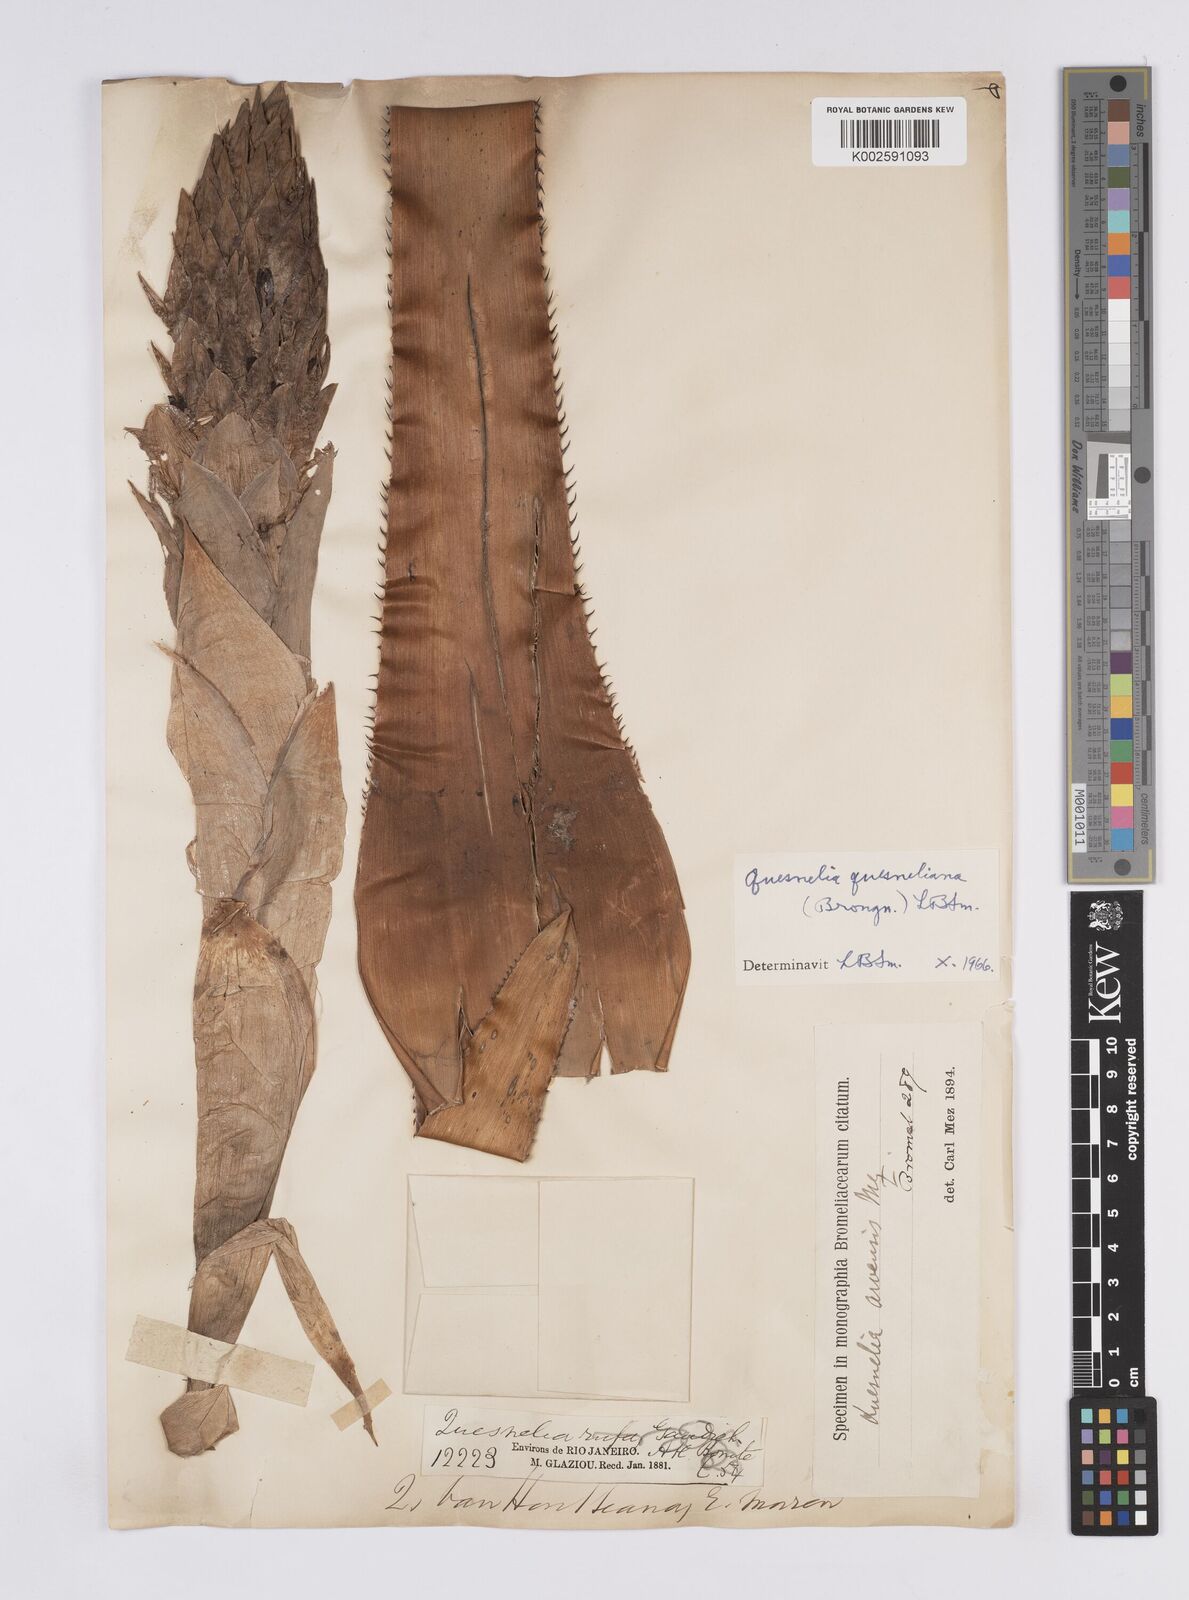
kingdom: Plantae
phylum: Tracheophyta
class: Liliopsida
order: Poales
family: Bromeliaceae
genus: Quesnelia
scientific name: Quesnelia quesneliana
